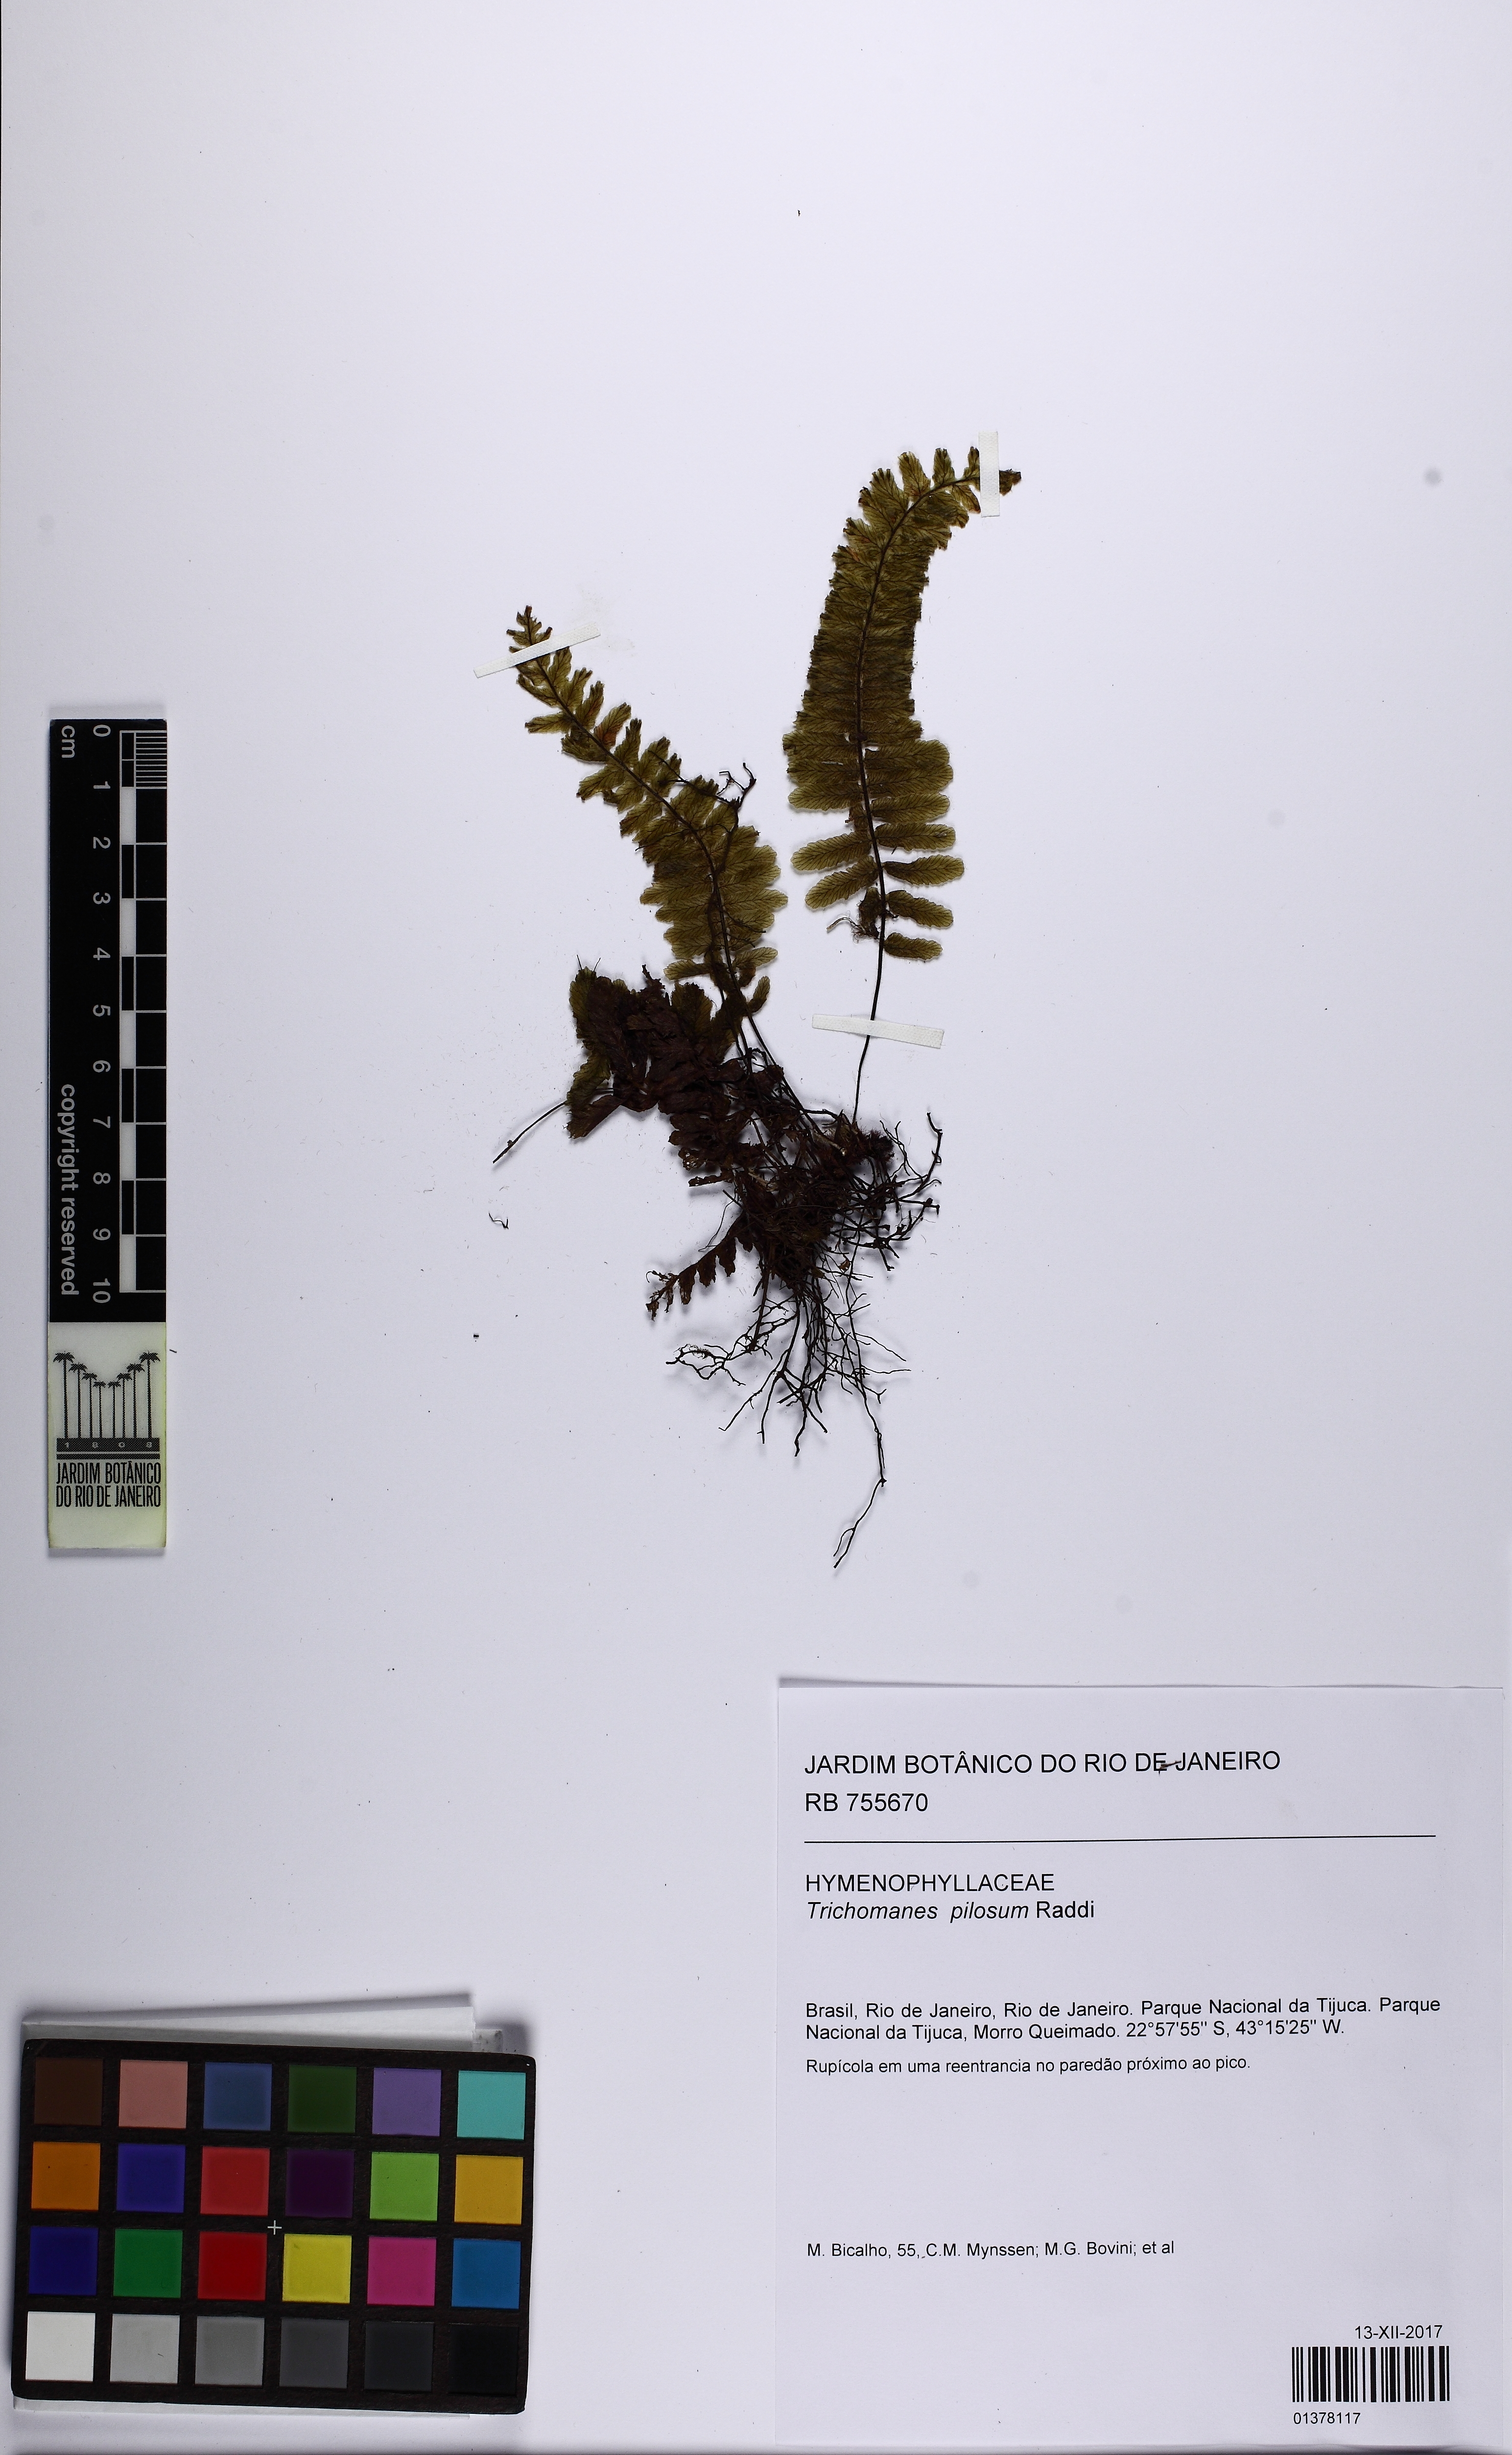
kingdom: Plantae
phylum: Tracheophyta
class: Polypodiopsida
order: Hymenophyllales
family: Hymenophyllaceae
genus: Trichomanes
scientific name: Trichomanes pilosum
